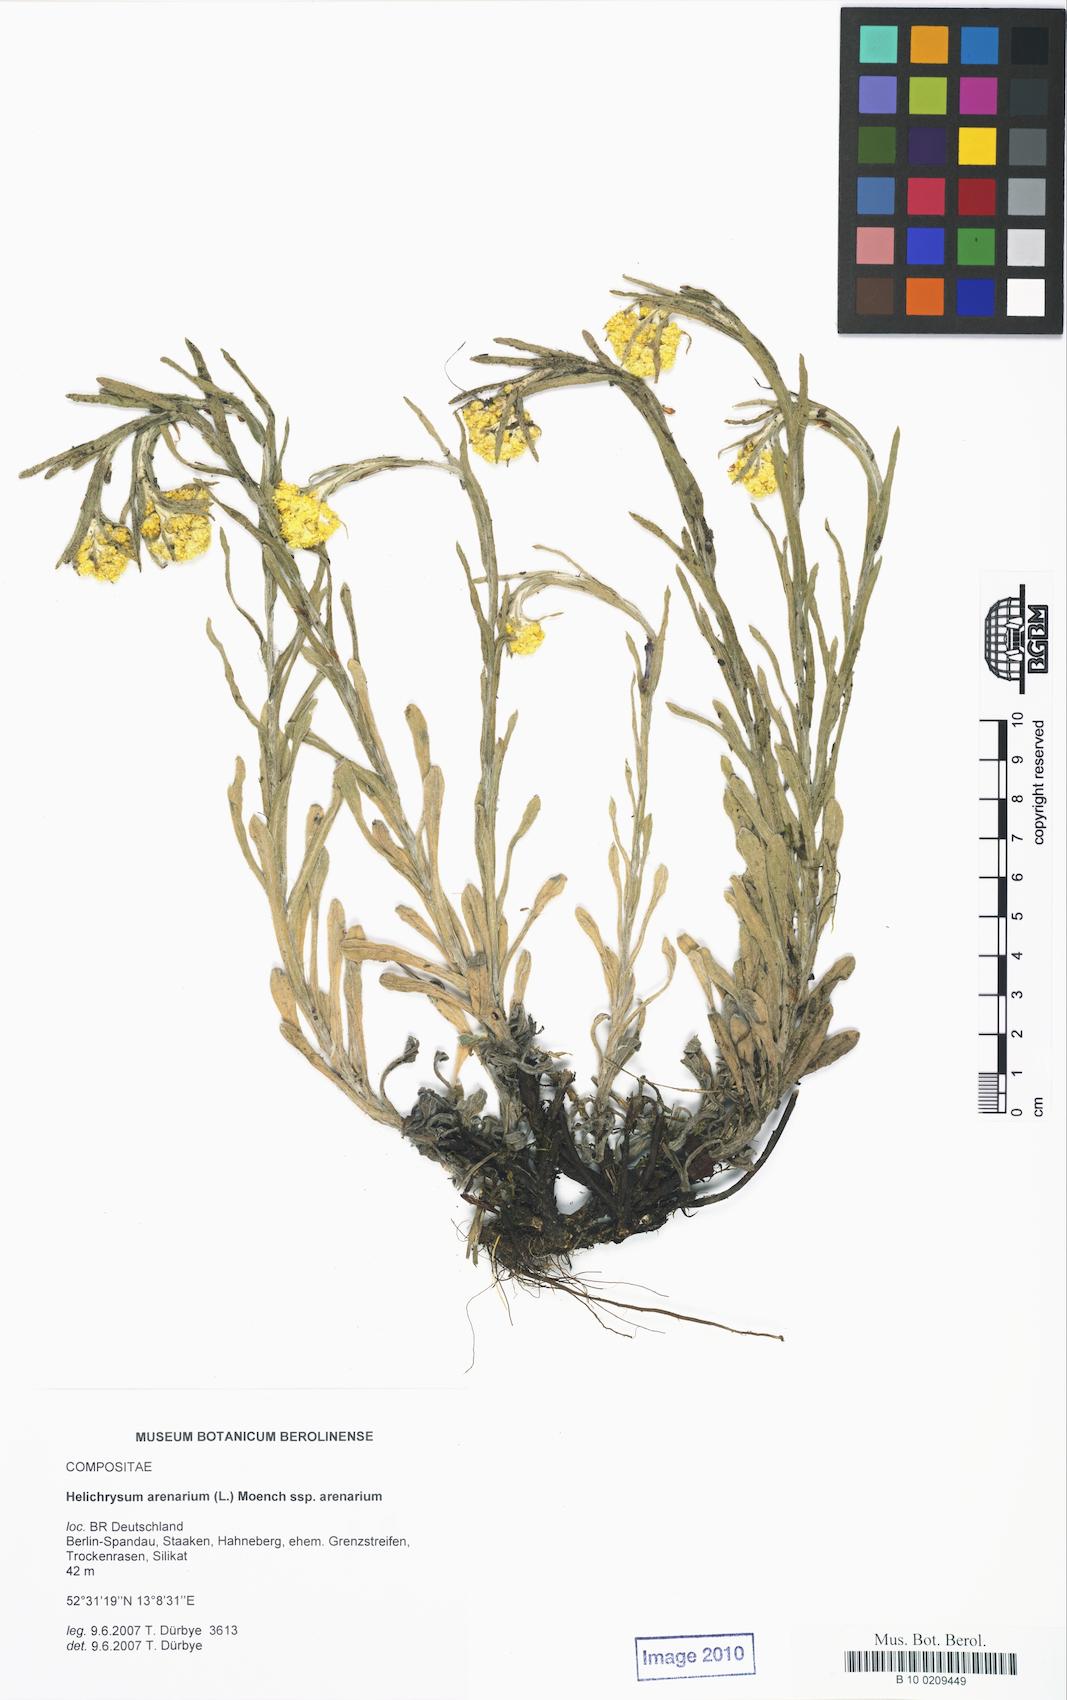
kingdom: Plantae
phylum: Tracheophyta
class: Magnoliopsida
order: Asterales
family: Asteraceae
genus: Helichrysum
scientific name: Helichrysum arenarium
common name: Strawflower
